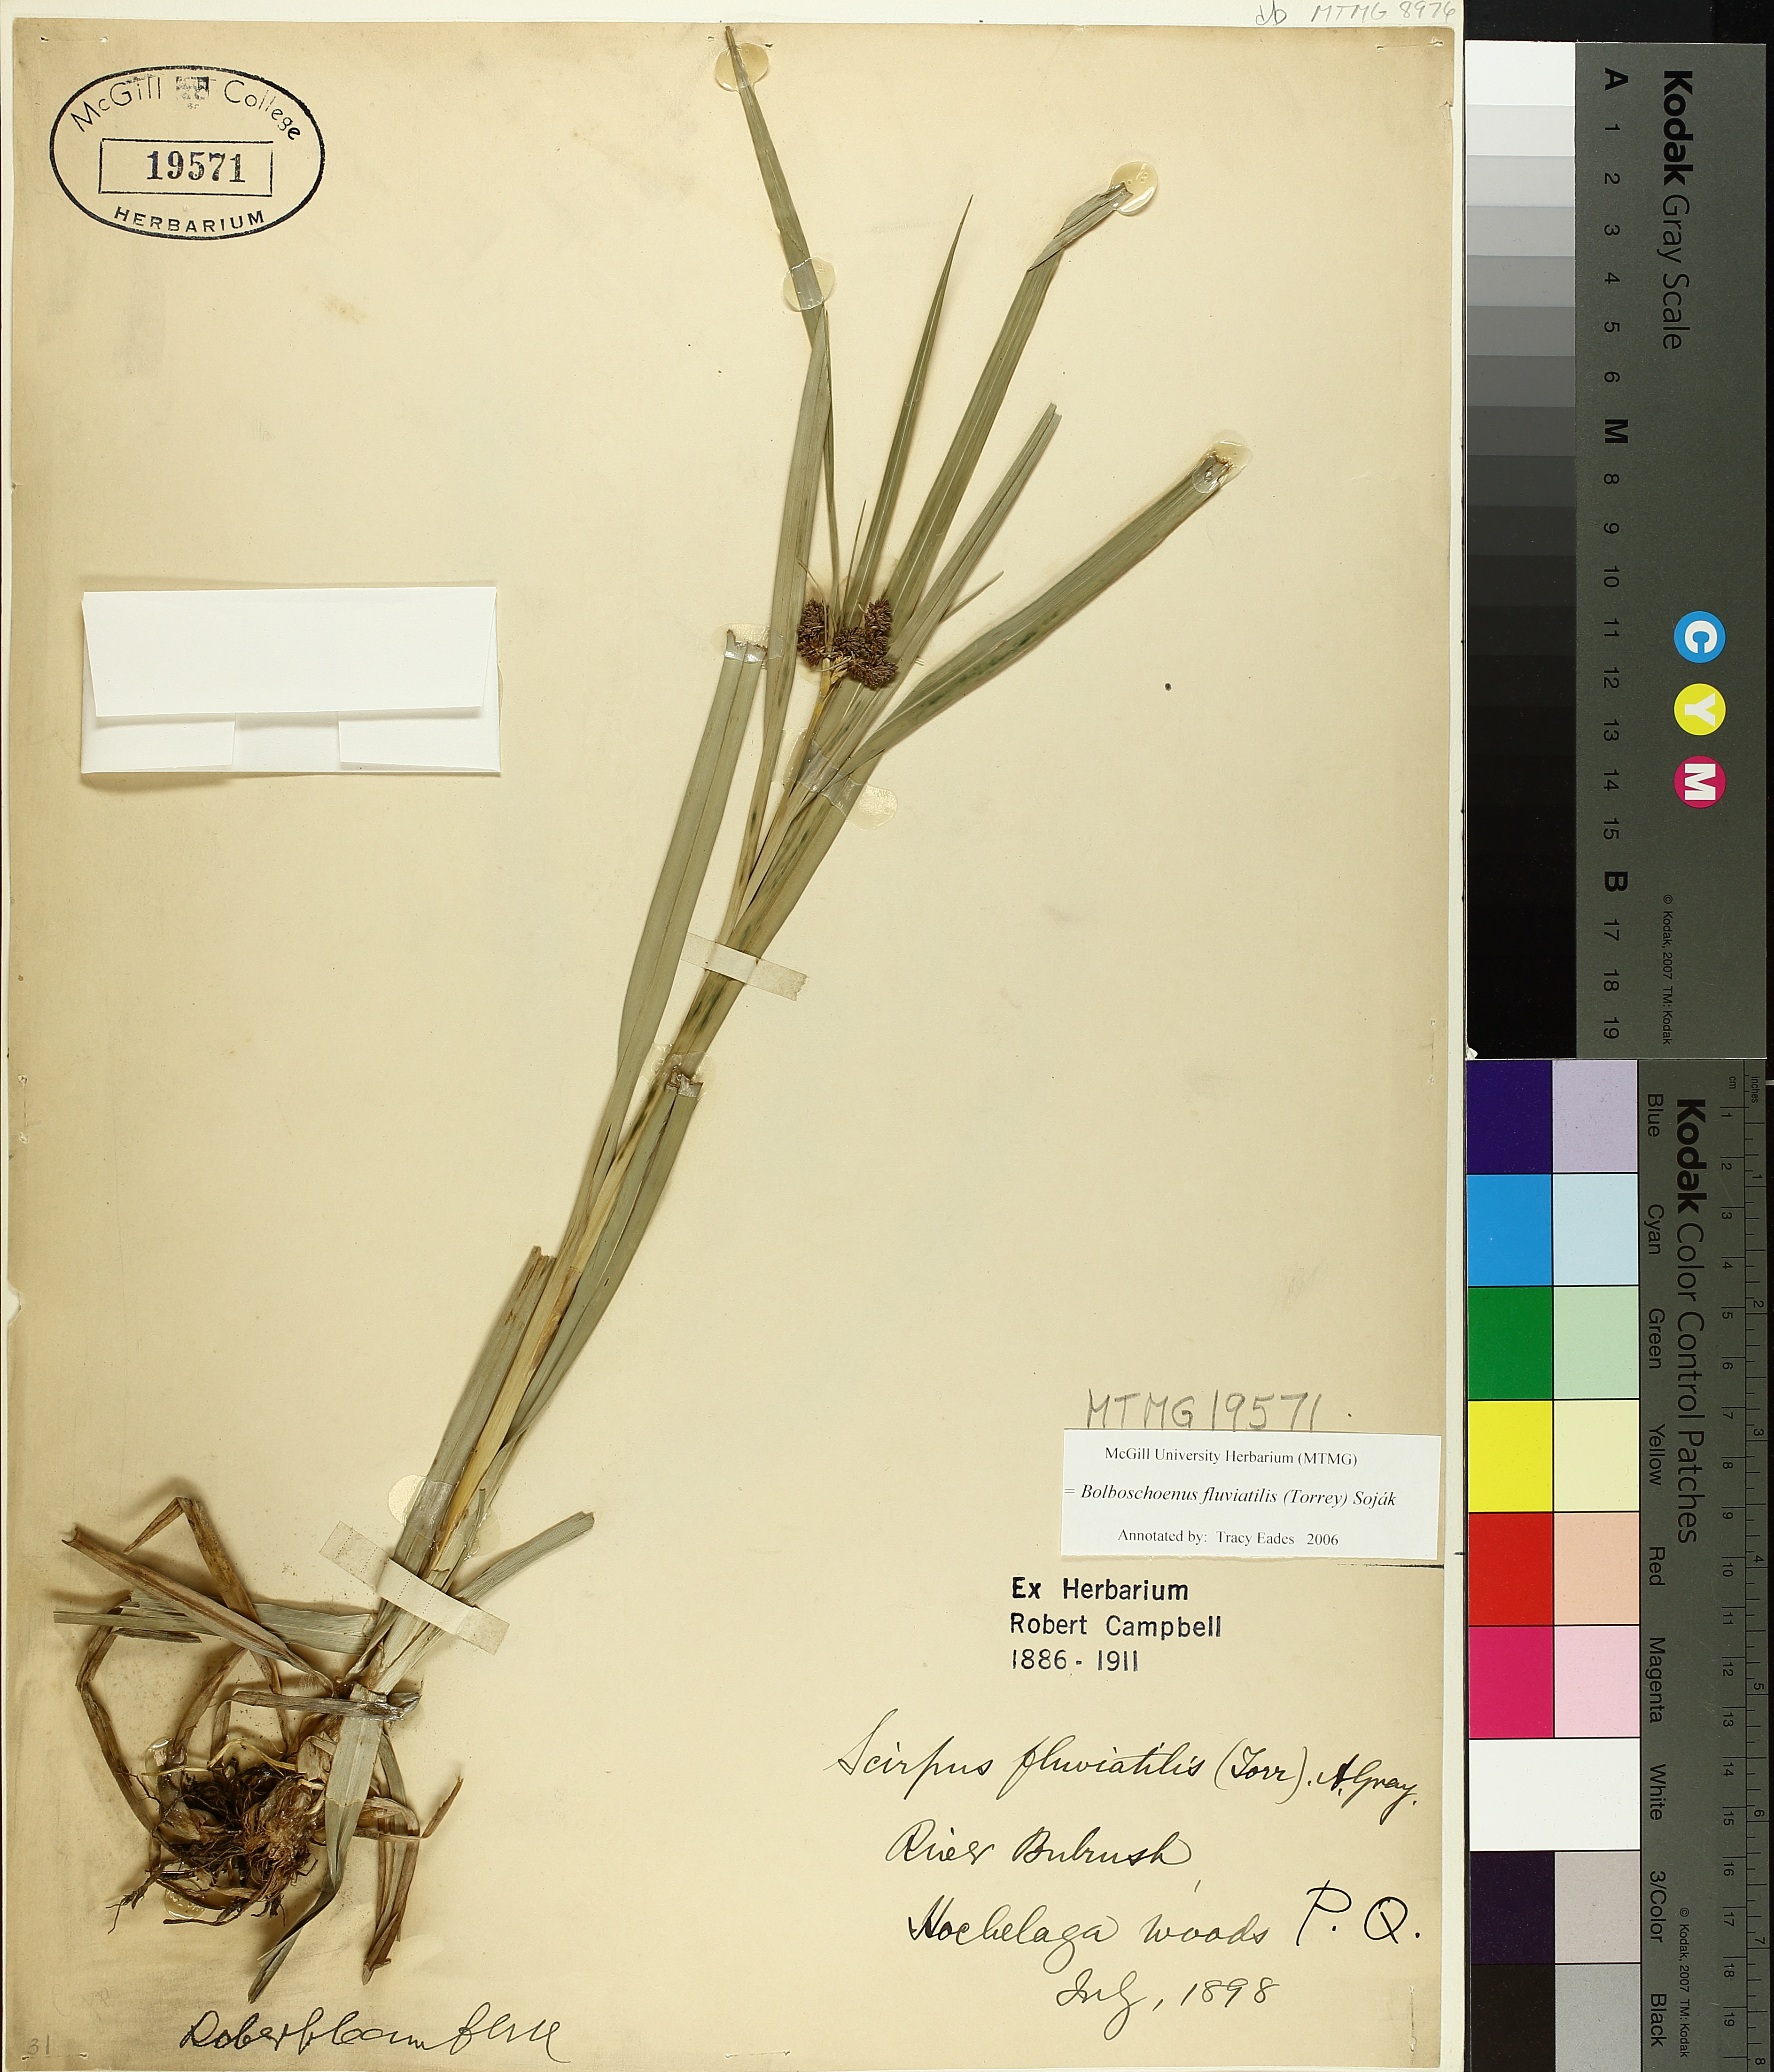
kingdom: Plantae
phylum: Tracheophyta
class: Liliopsida
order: Poales
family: Cyperaceae
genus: Bolboschoenus
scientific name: Bolboschoenus fluviatilis
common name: River bulrush
